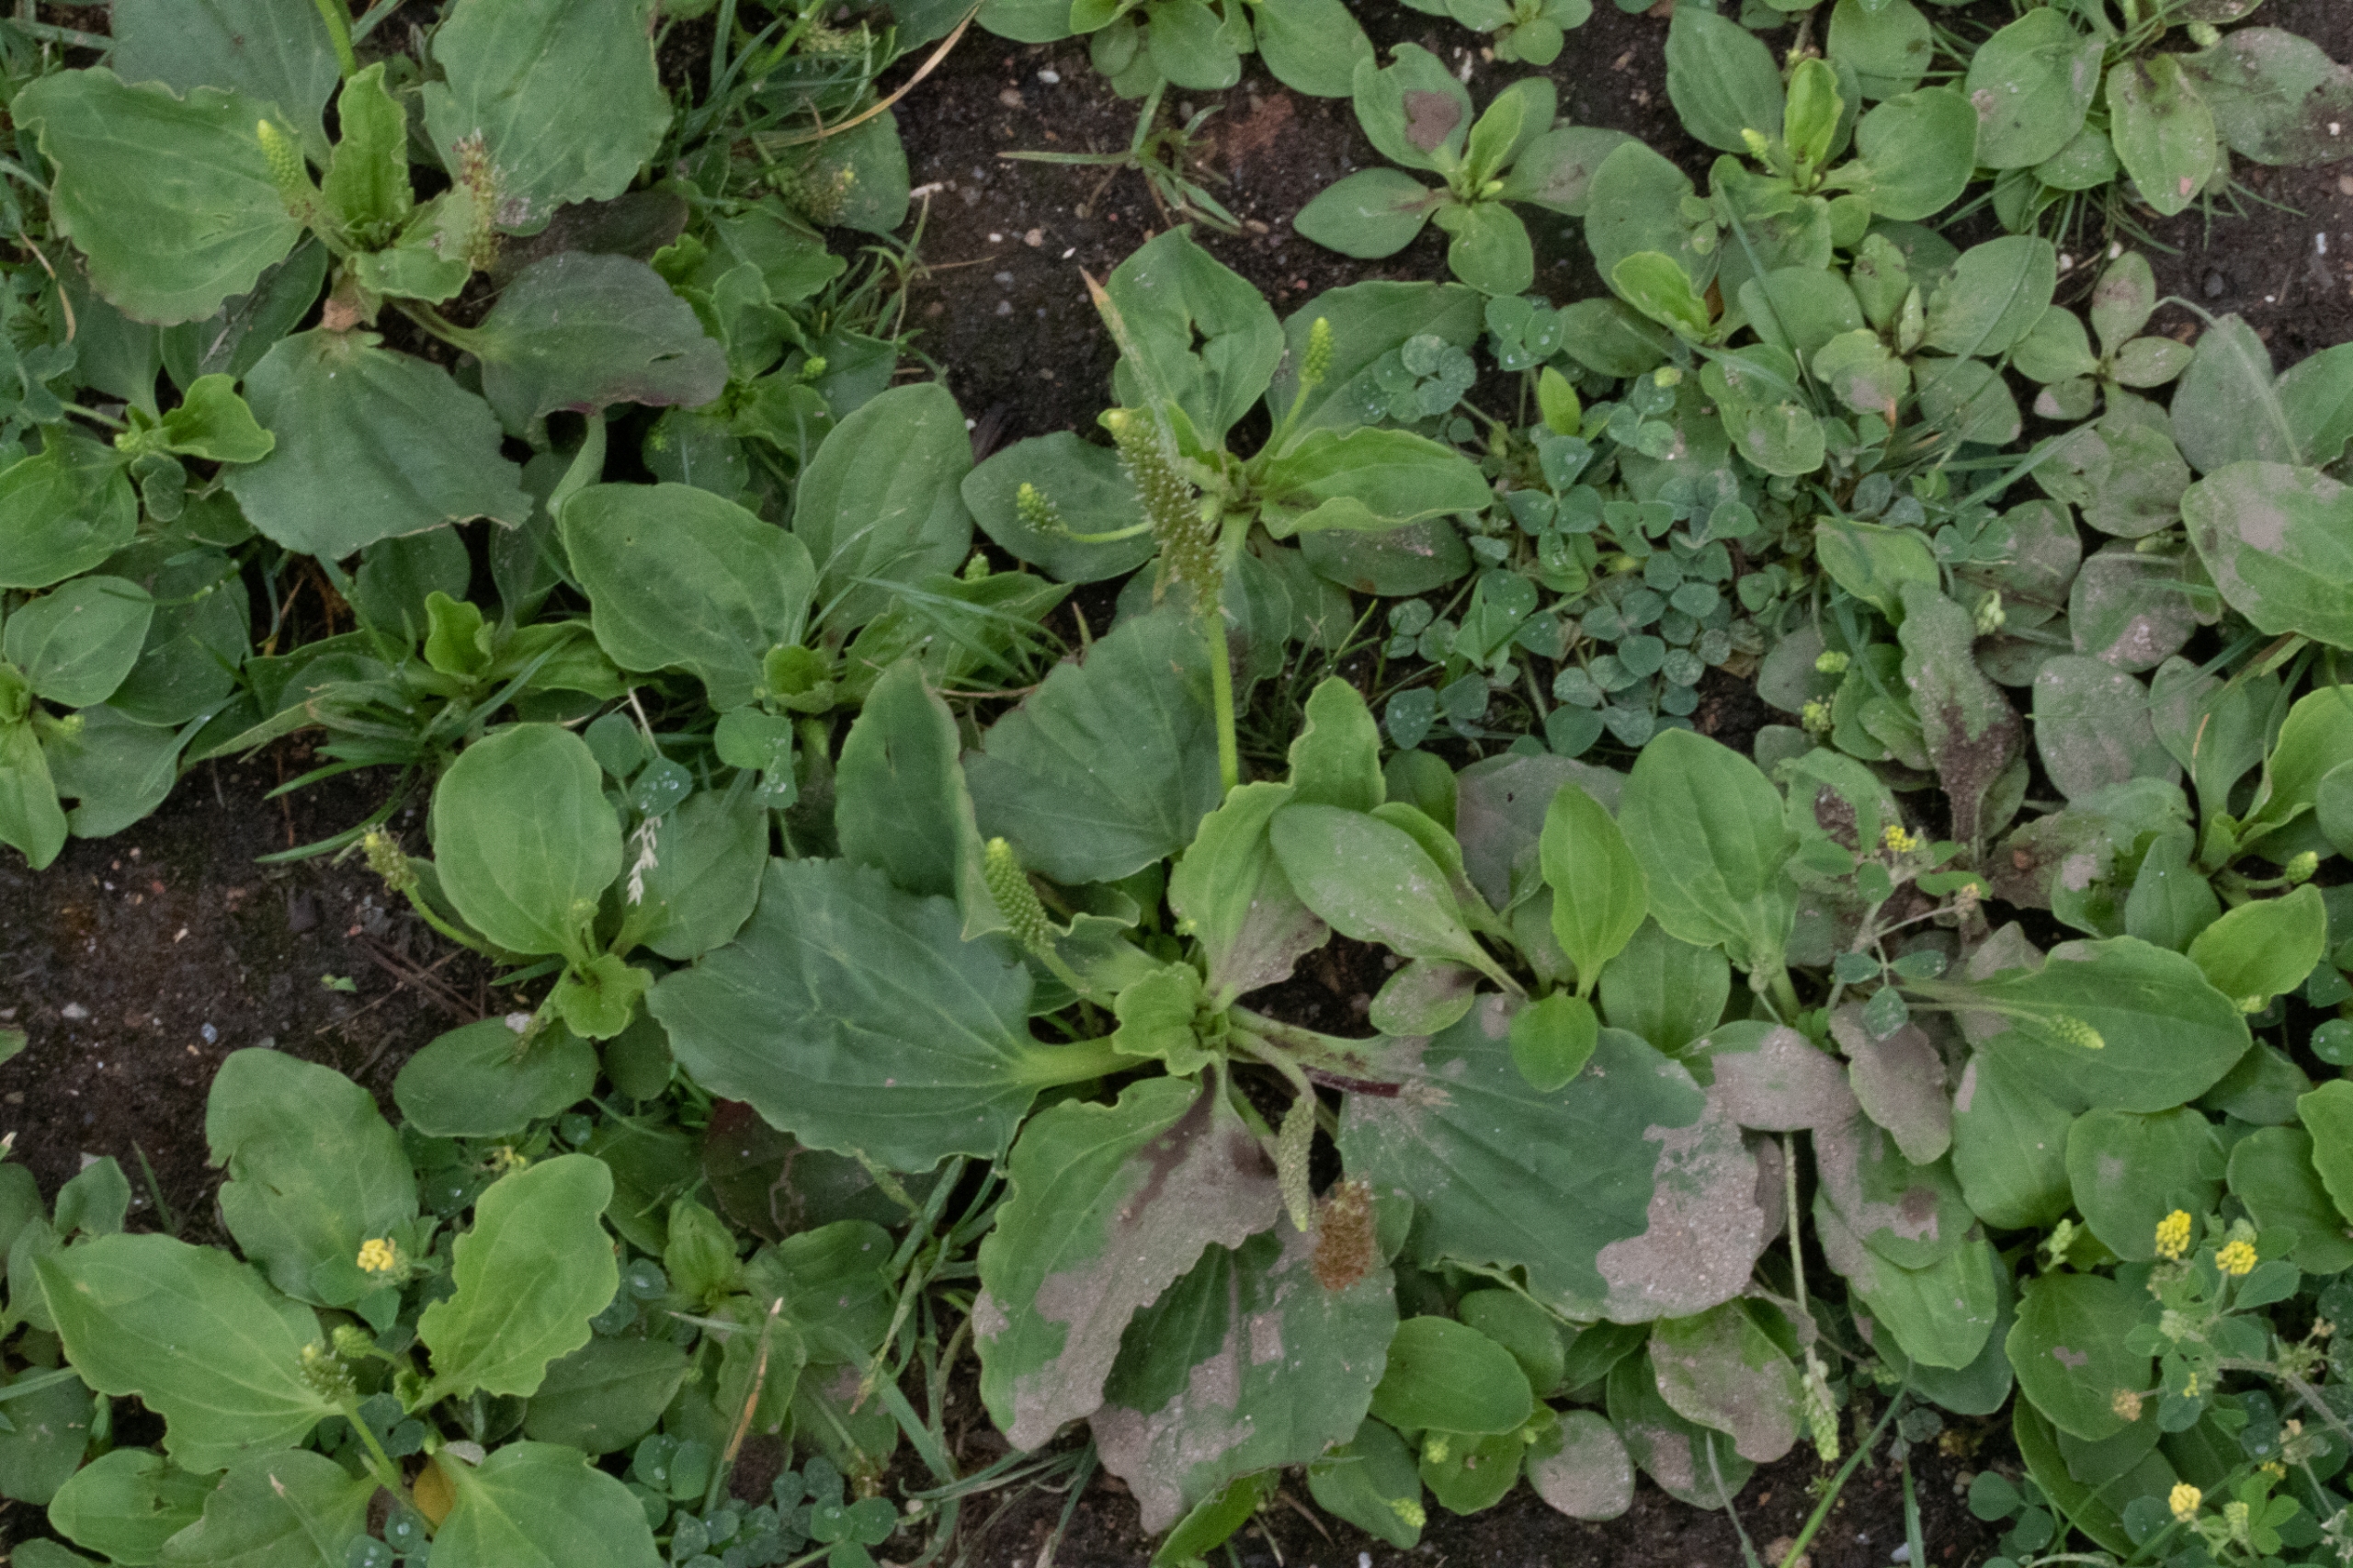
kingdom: Plantae
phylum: Tracheophyta
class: Magnoliopsida
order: Lamiales
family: Plantaginaceae
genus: Plantago
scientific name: Plantago major
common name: Glat vejbred
